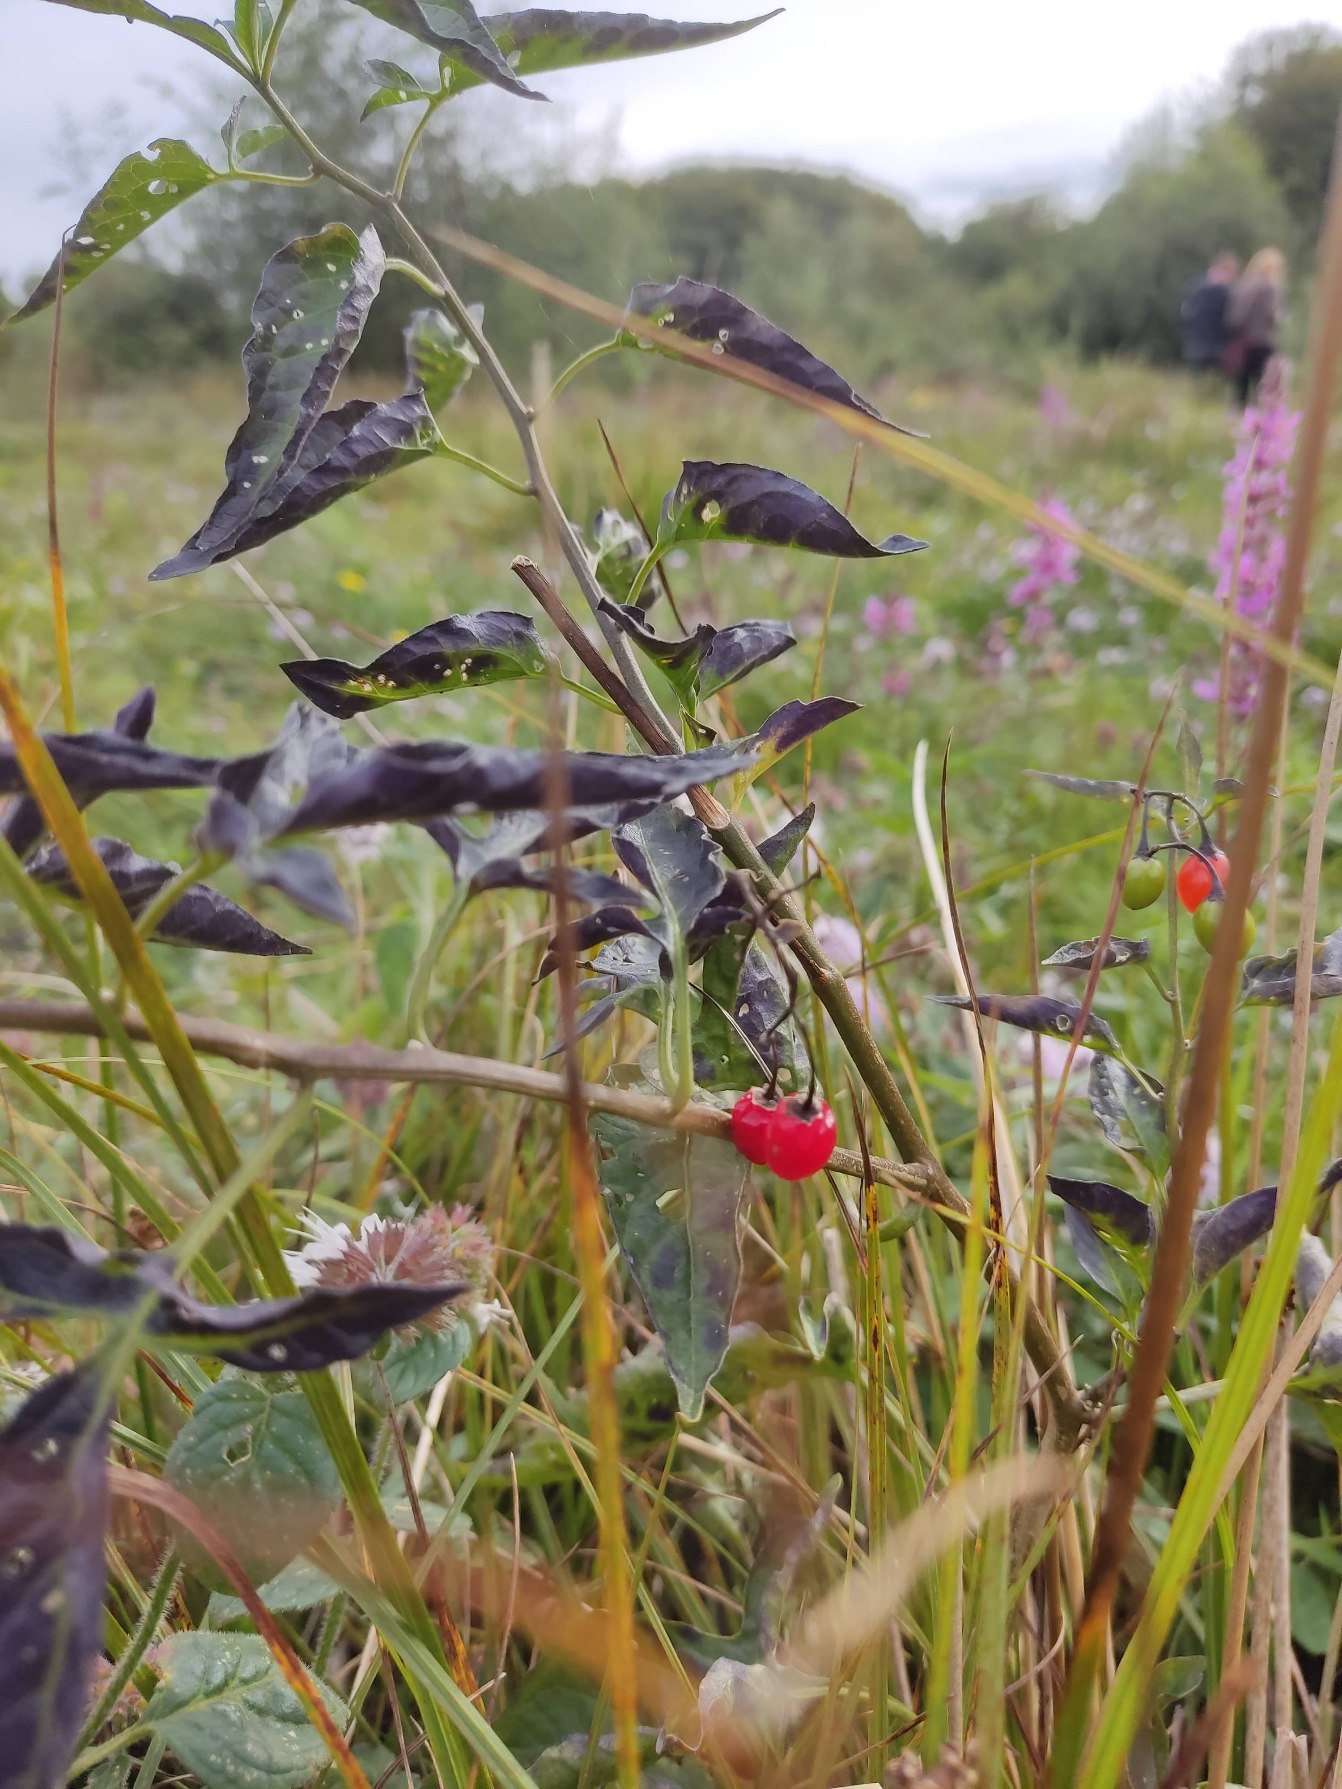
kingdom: Plantae
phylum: Tracheophyta
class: Magnoliopsida
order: Solanales
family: Solanaceae
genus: Solanum
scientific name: Solanum dulcamara
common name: Bittersød natskygge
